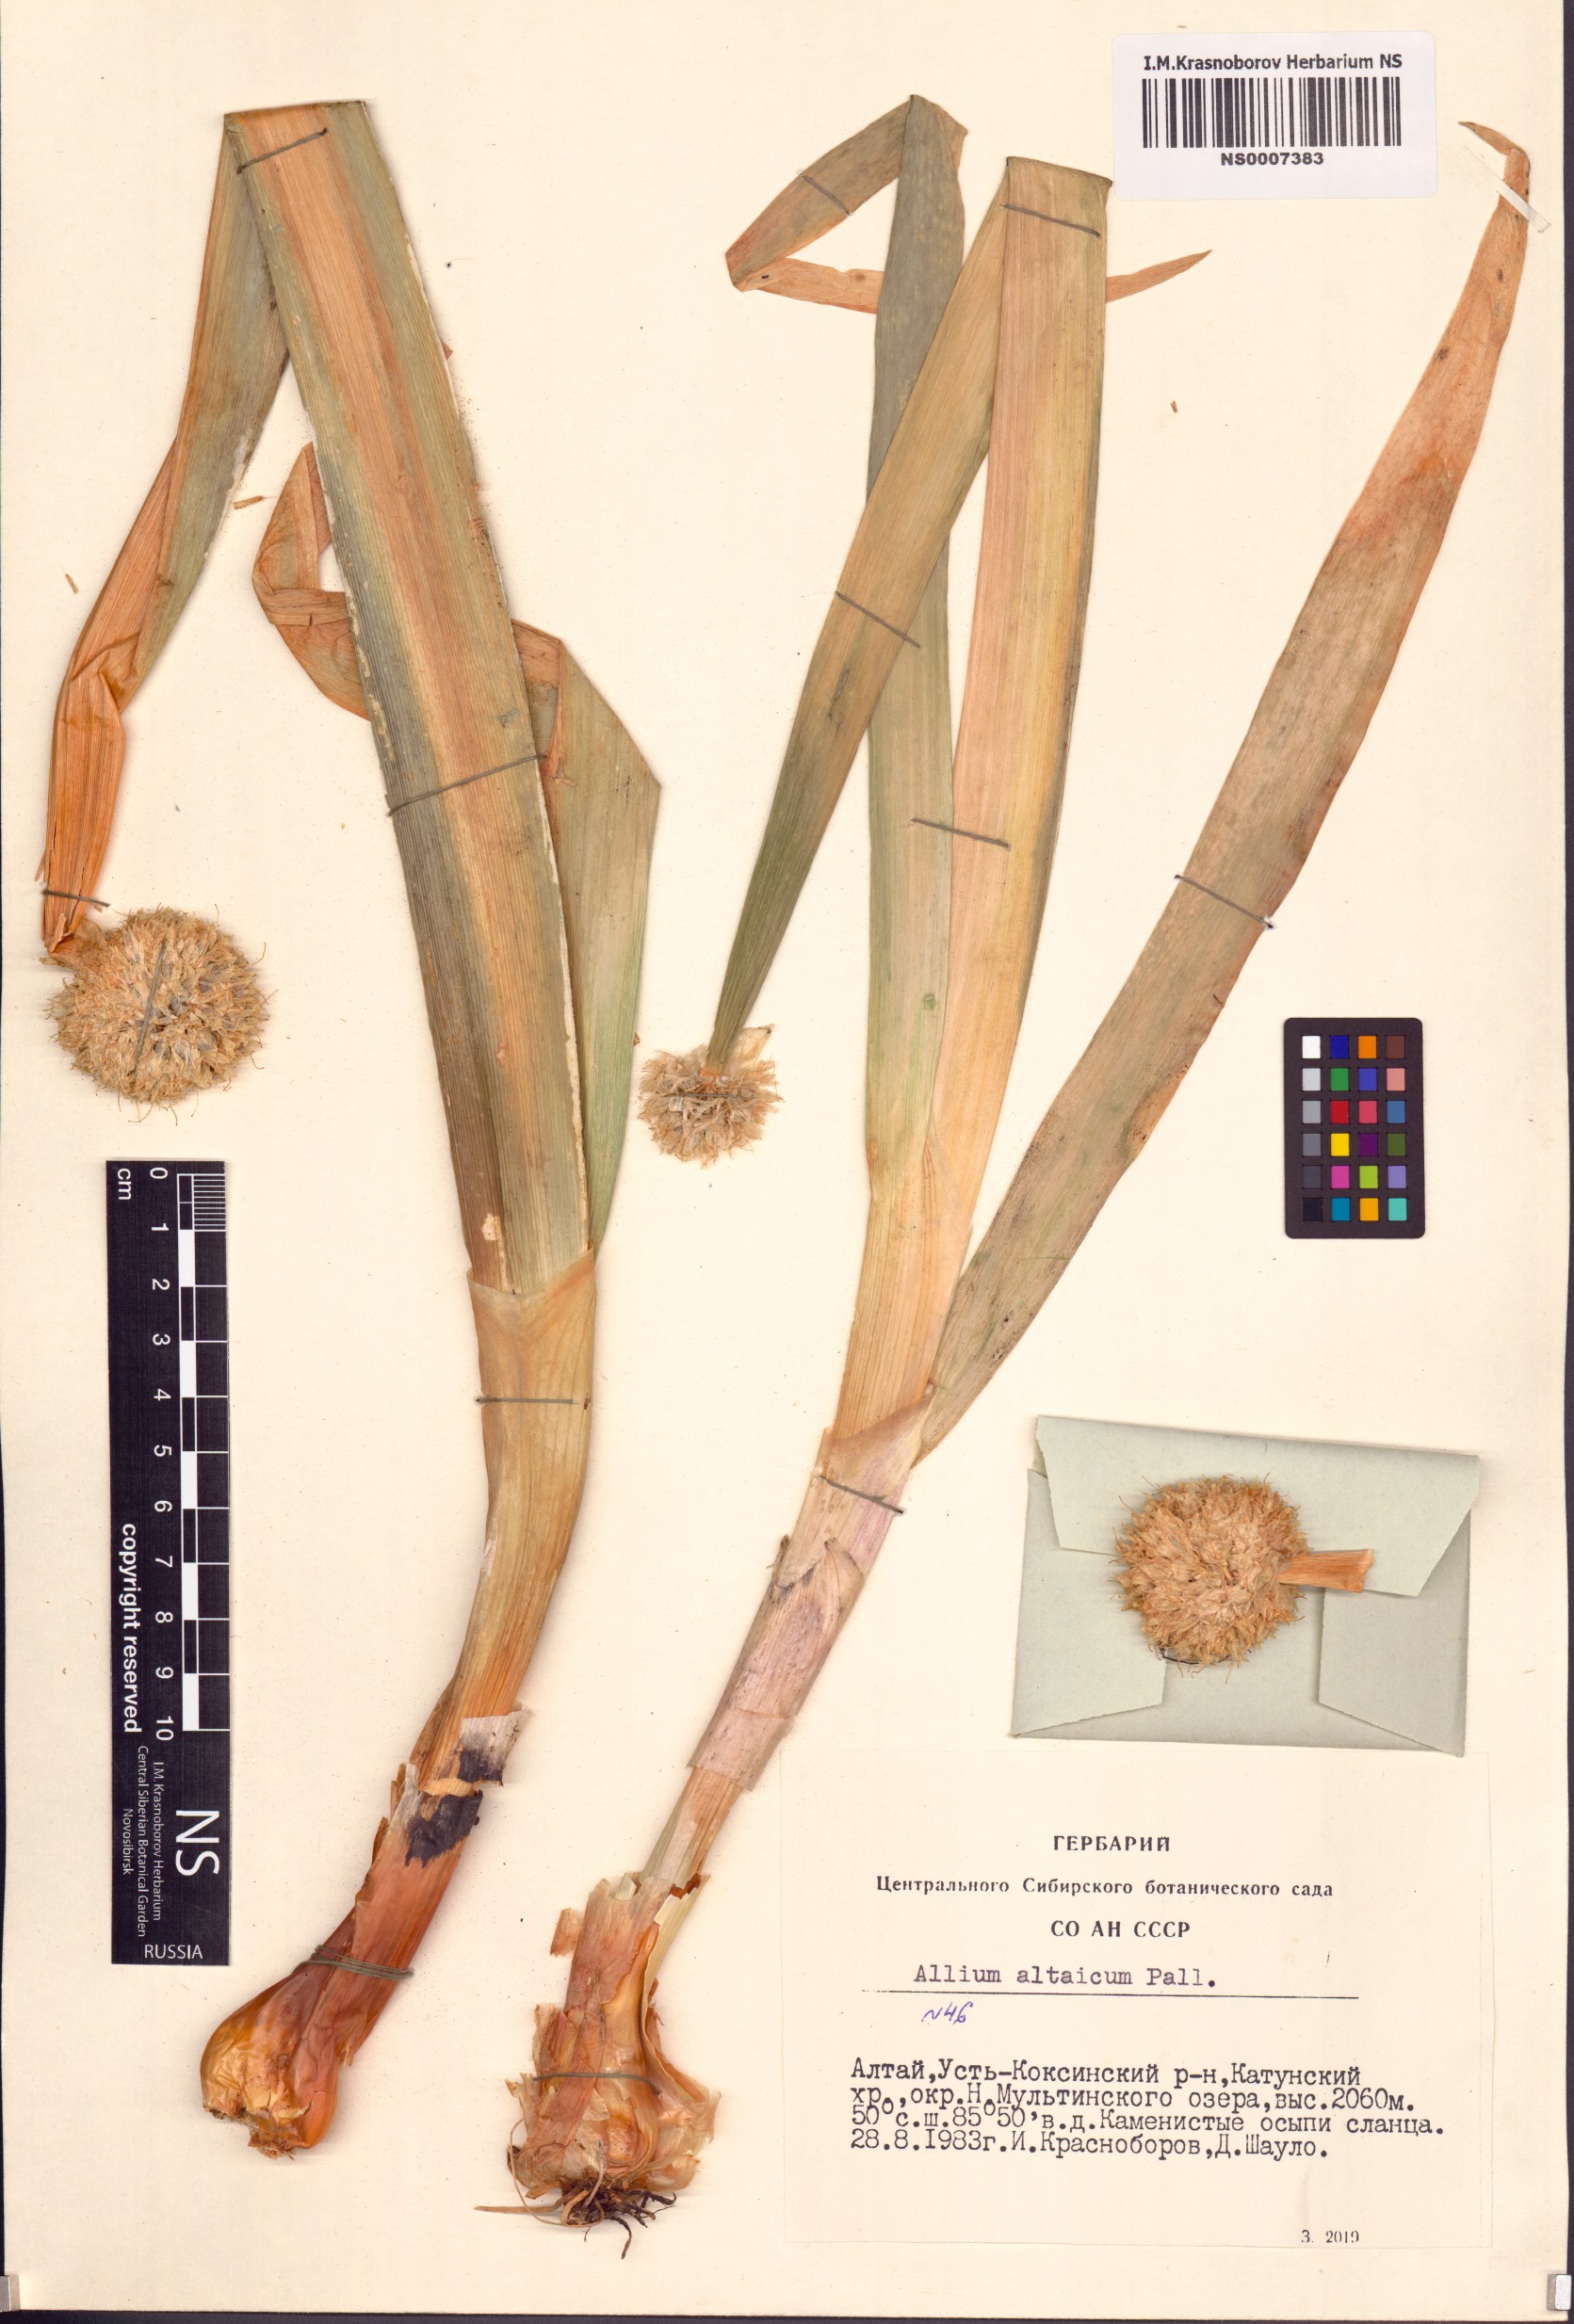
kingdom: Plantae
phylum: Tracheophyta
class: Liliopsida
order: Asparagales
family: Amaryllidaceae
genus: Allium
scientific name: Allium altaicum
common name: Altai onion
